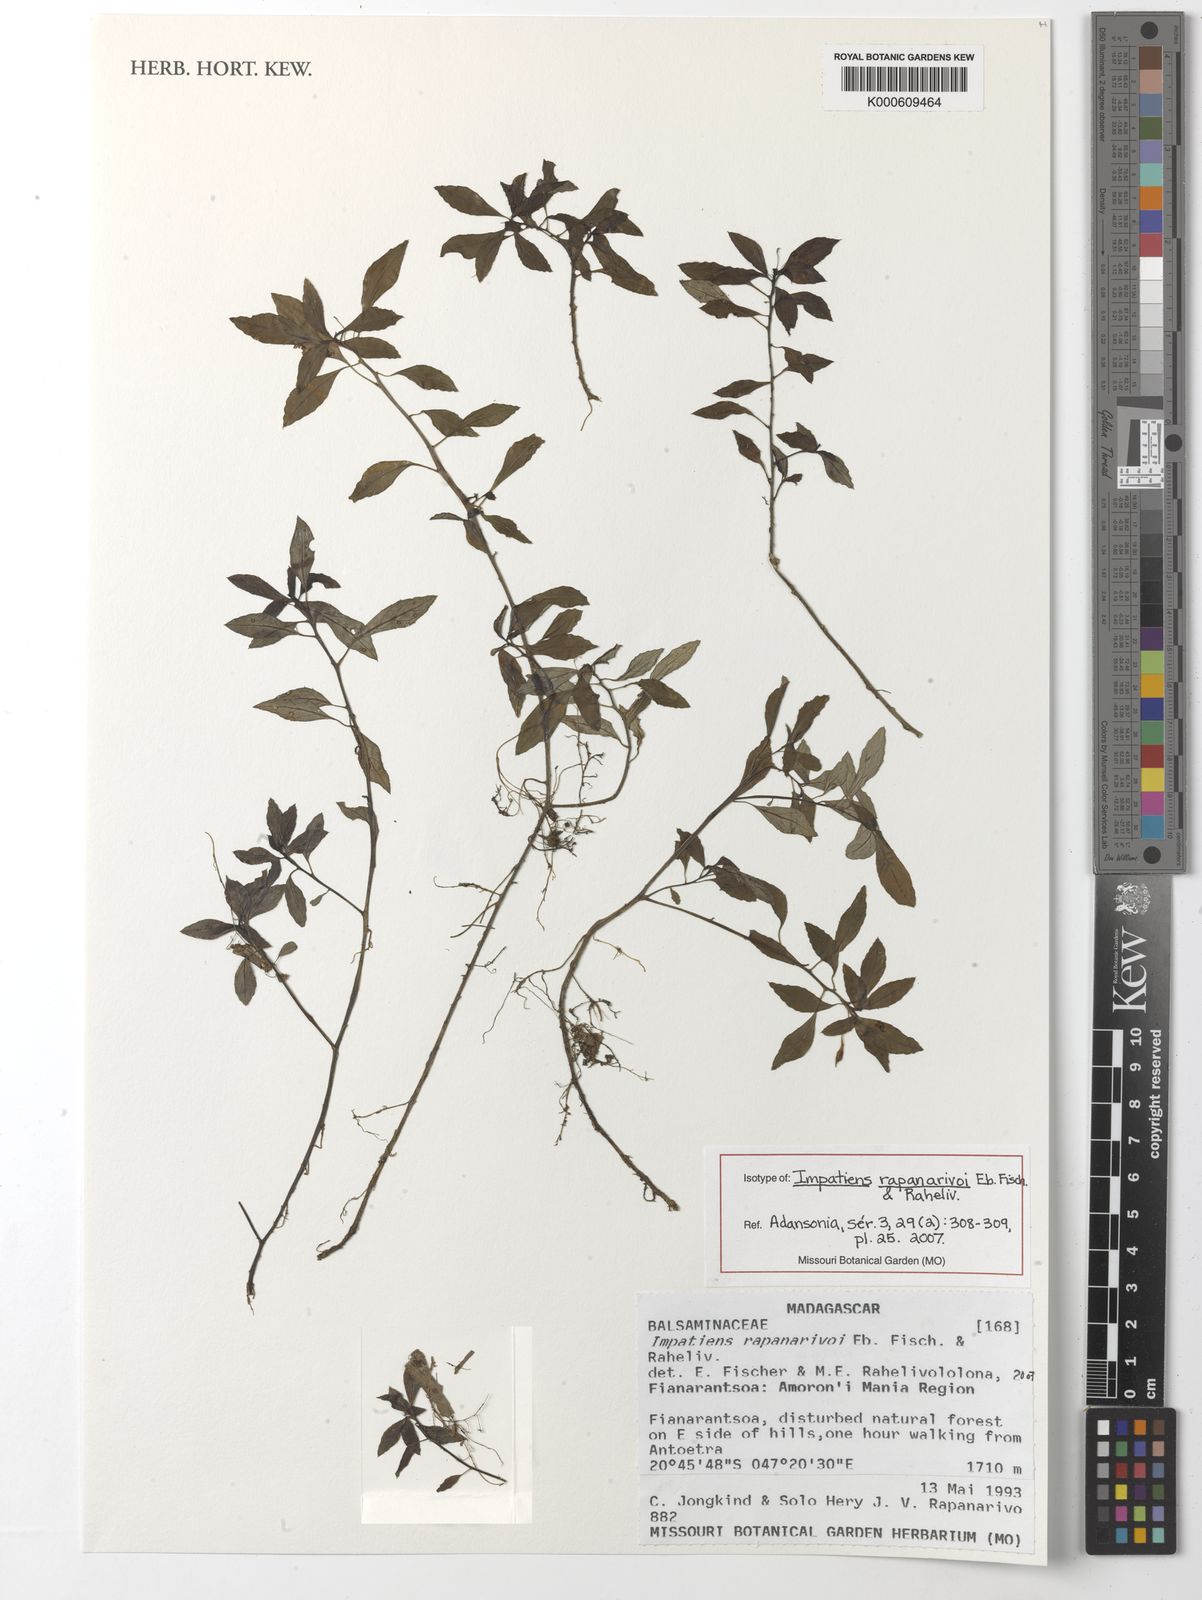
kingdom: Plantae
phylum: Tracheophyta
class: Magnoliopsida
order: Ericales
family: Balsaminaceae
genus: Impatiens
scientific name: Impatiens rapanarivoi
